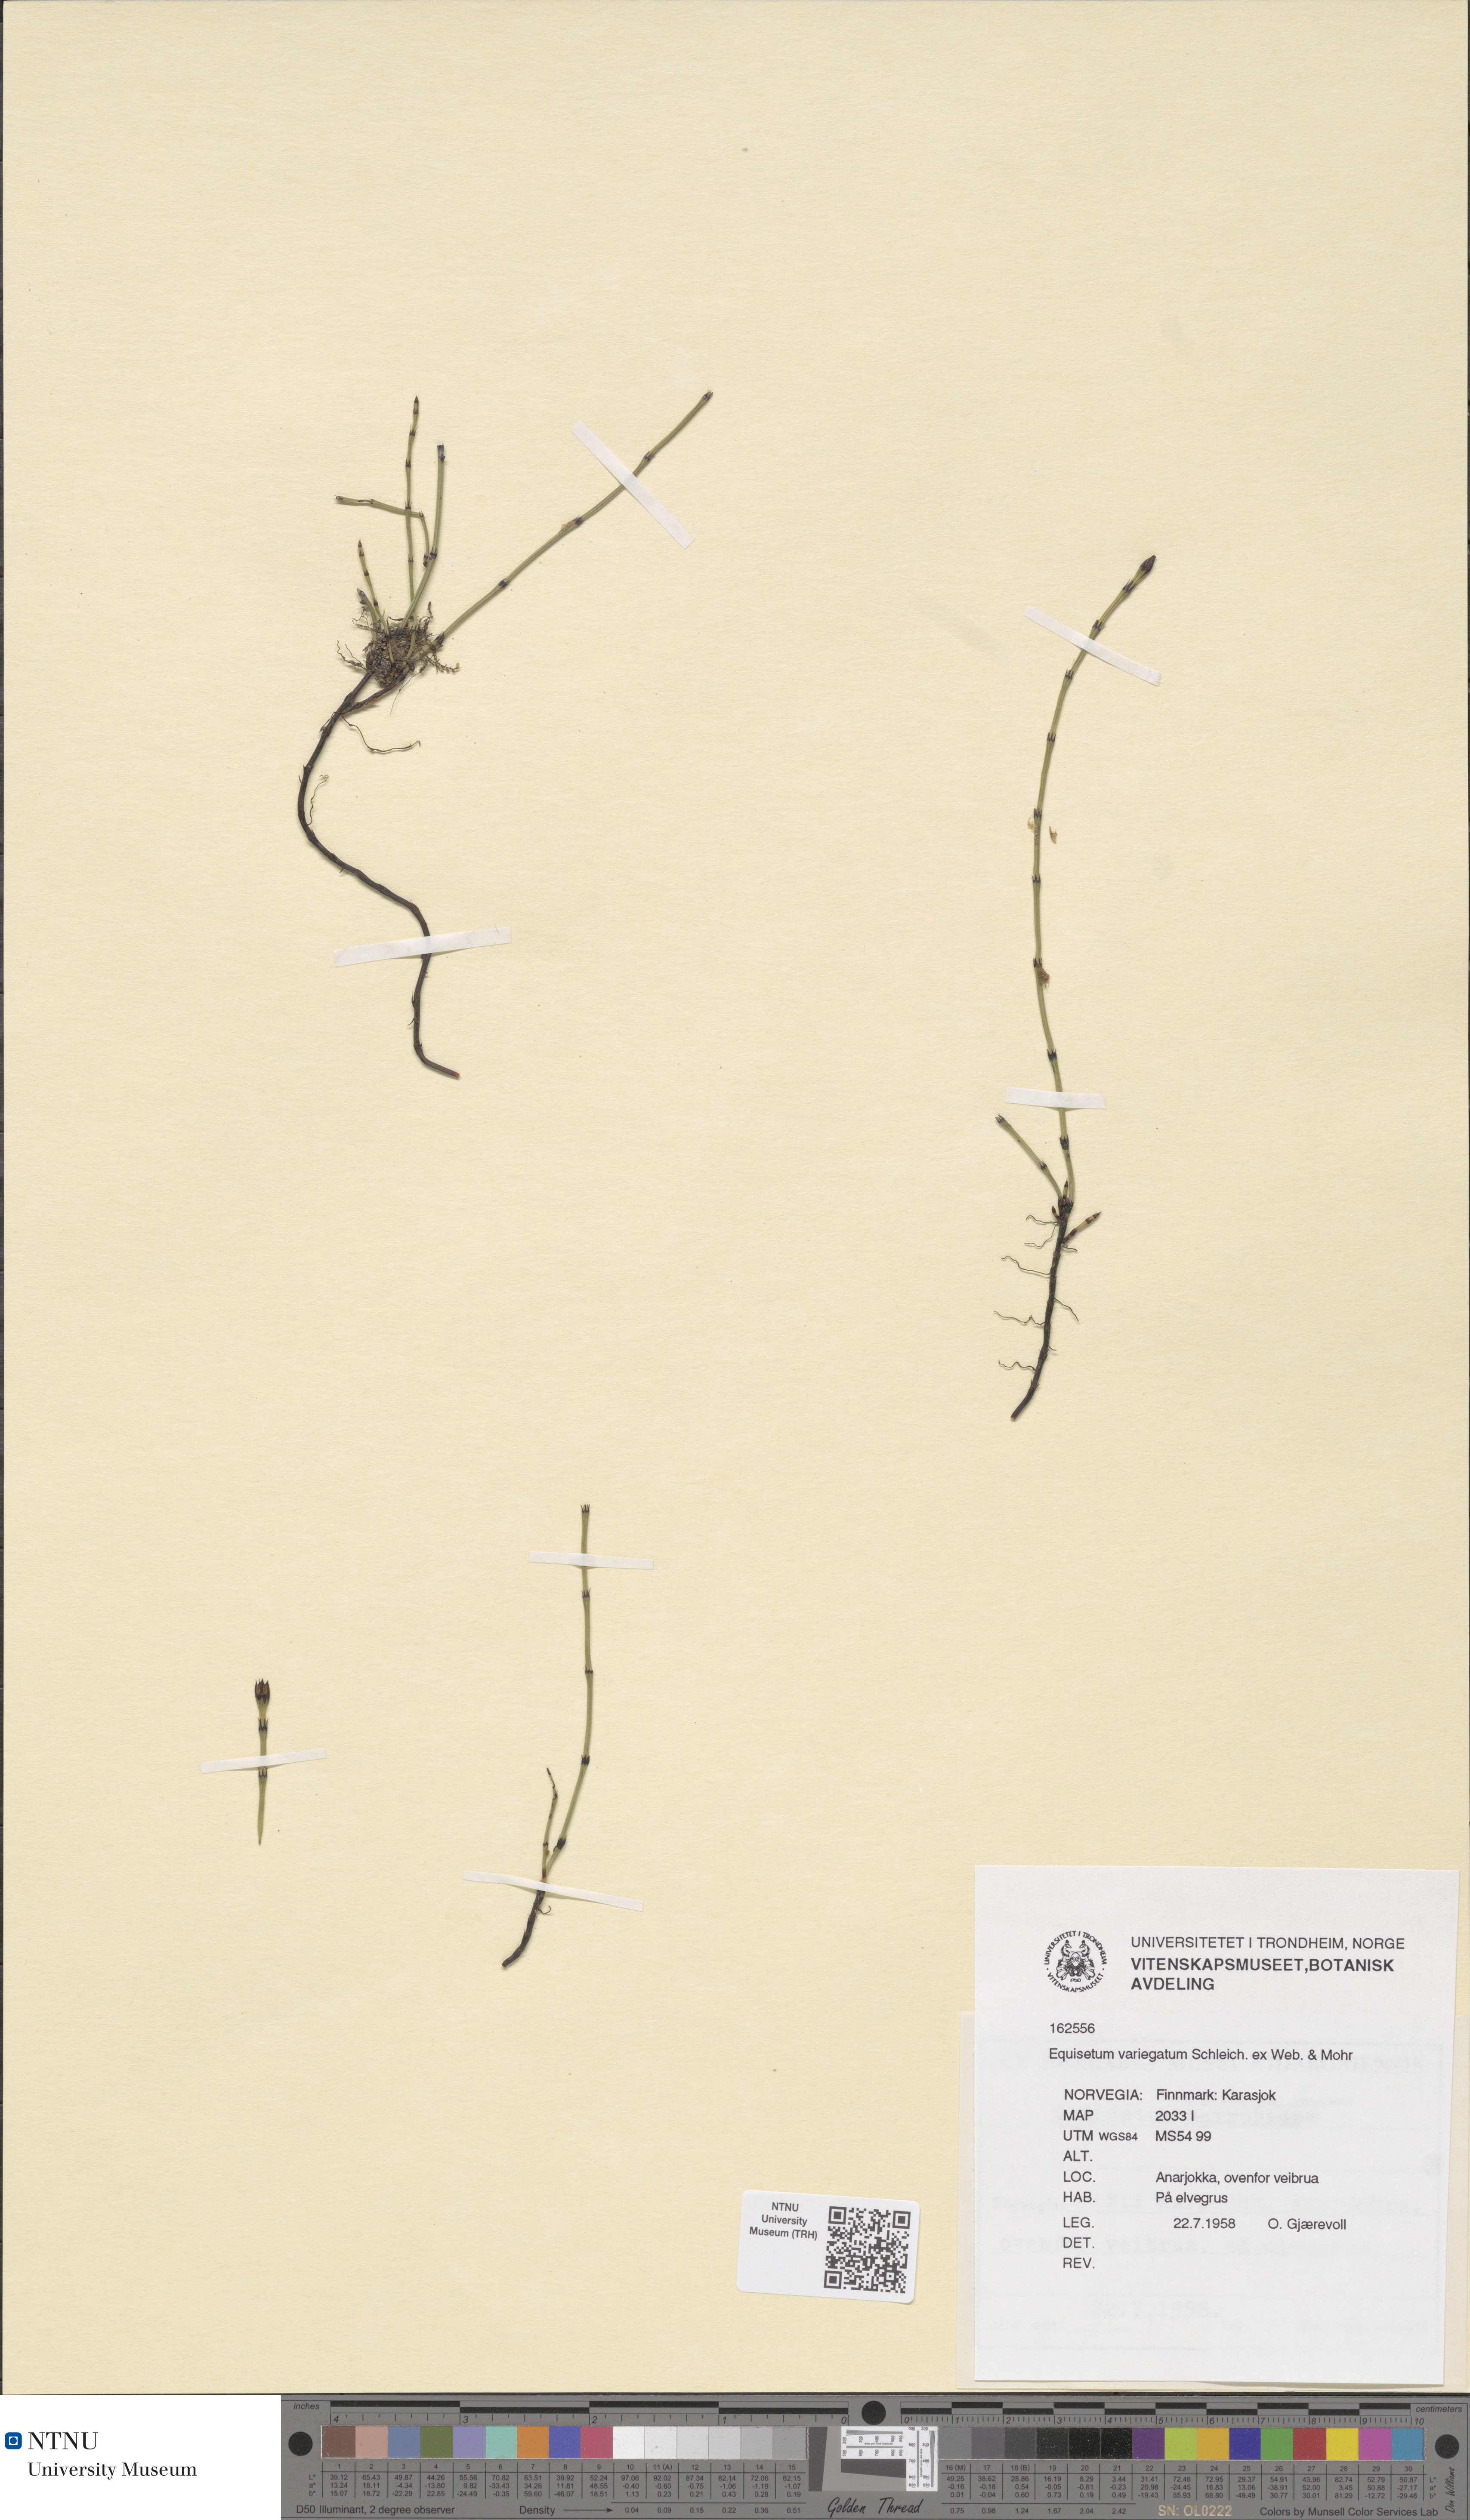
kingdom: Plantae
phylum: Tracheophyta
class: Polypodiopsida
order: Equisetales
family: Equisetaceae
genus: Equisetum
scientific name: Equisetum variegatum
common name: Variegated horsetail
